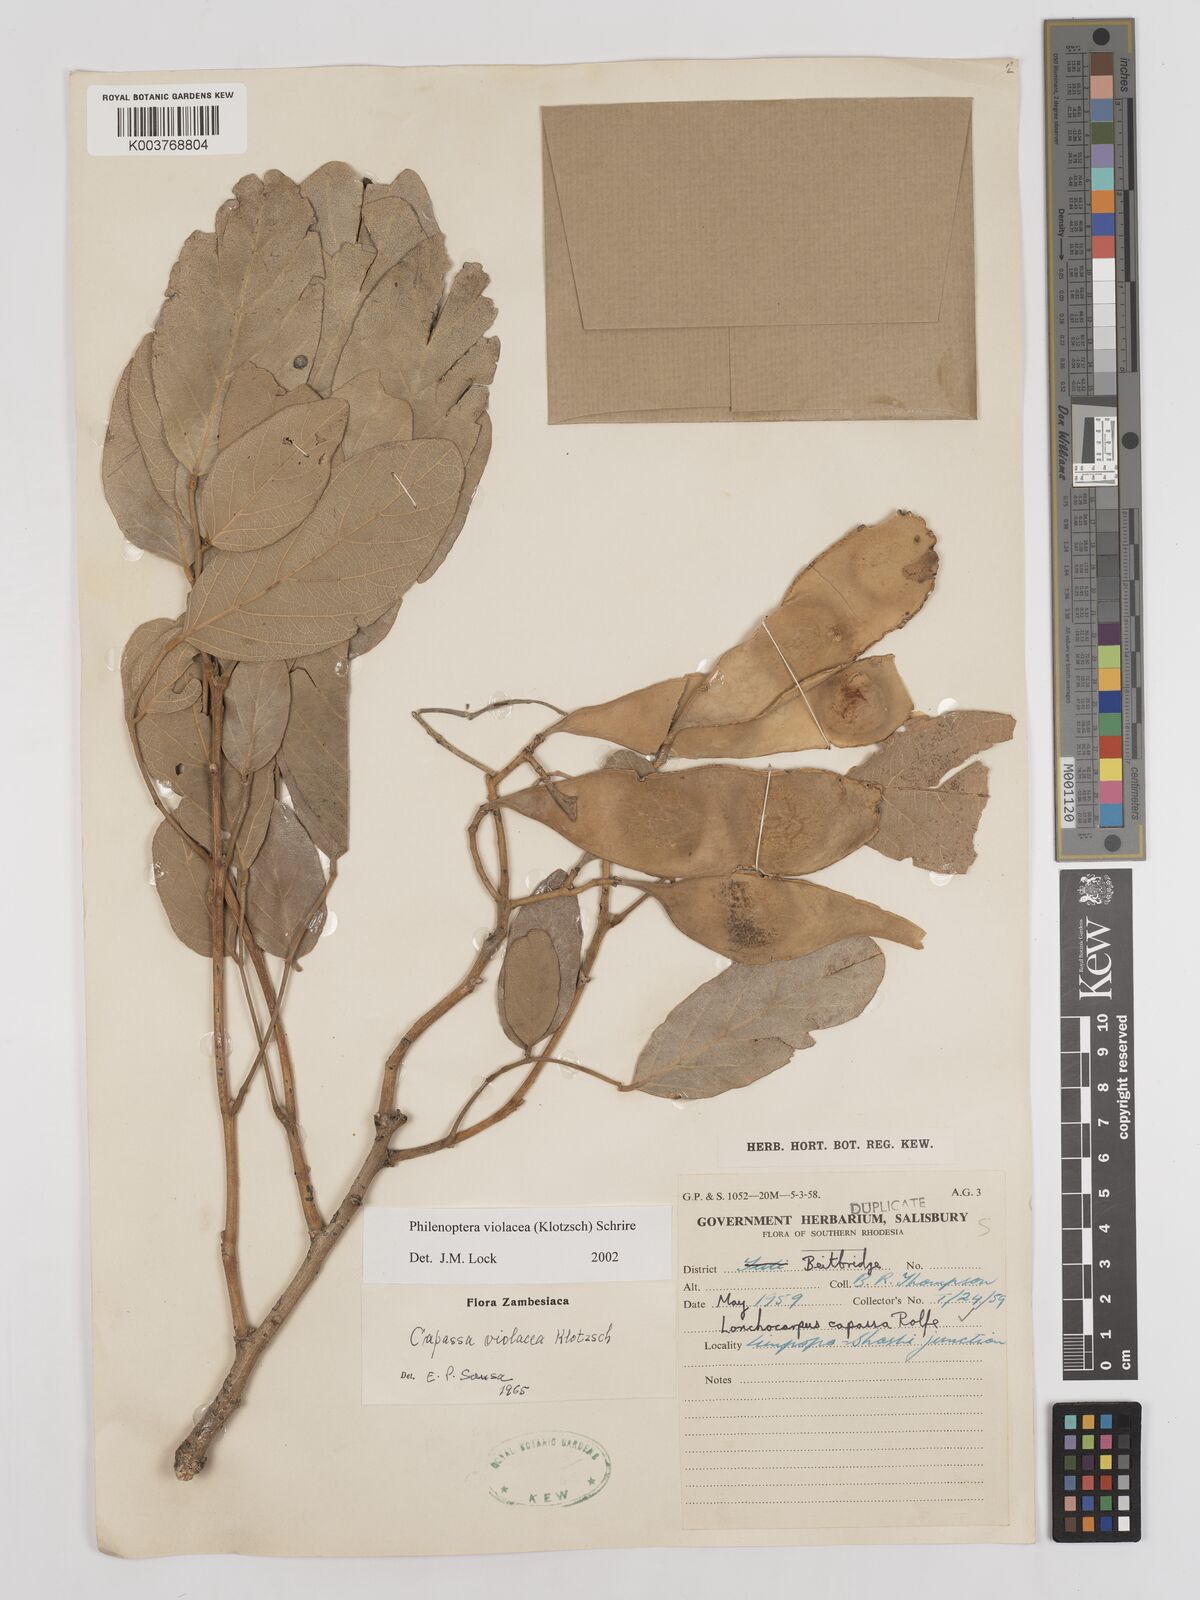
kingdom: Plantae
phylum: Tracheophyta
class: Magnoliopsida
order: Fabales
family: Fabaceae
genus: Philenoptera
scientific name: Philenoptera violacea
